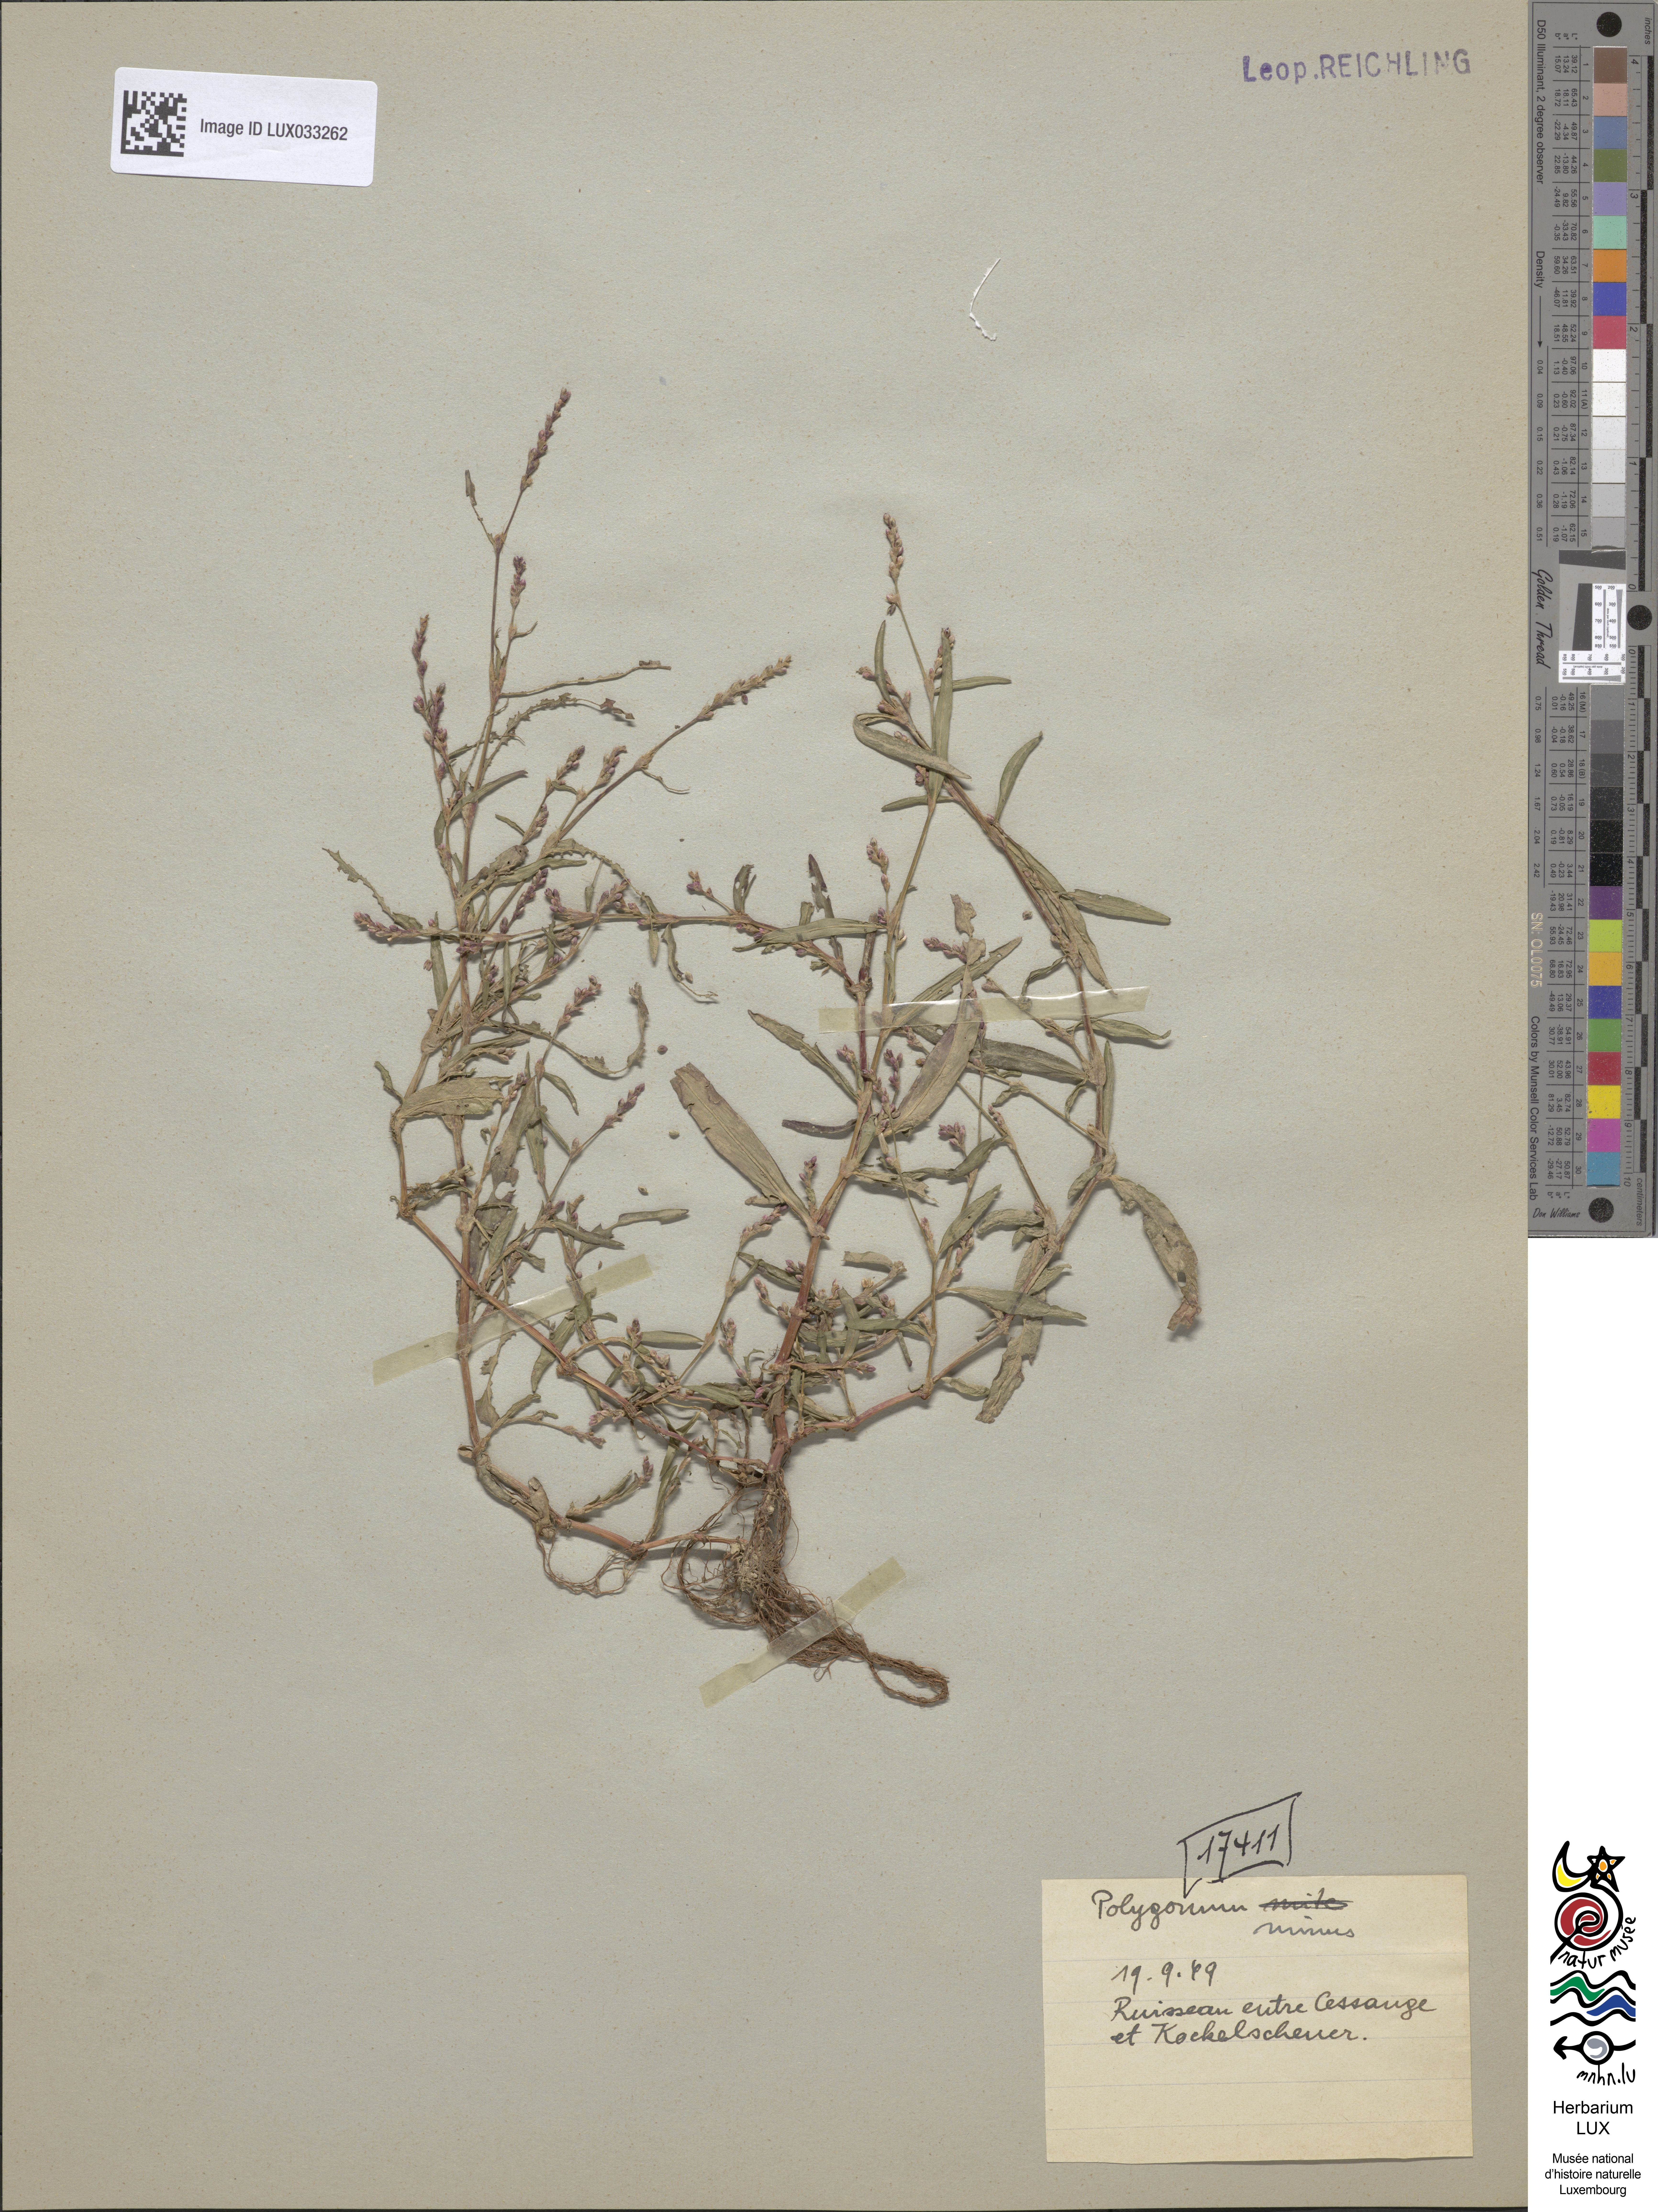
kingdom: Plantae
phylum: Tracheophyta
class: Magnoliopsida
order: Caryophyllales
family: Polygonaceae
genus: Persicaria
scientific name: Persicaria minor
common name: Small water-pepper
